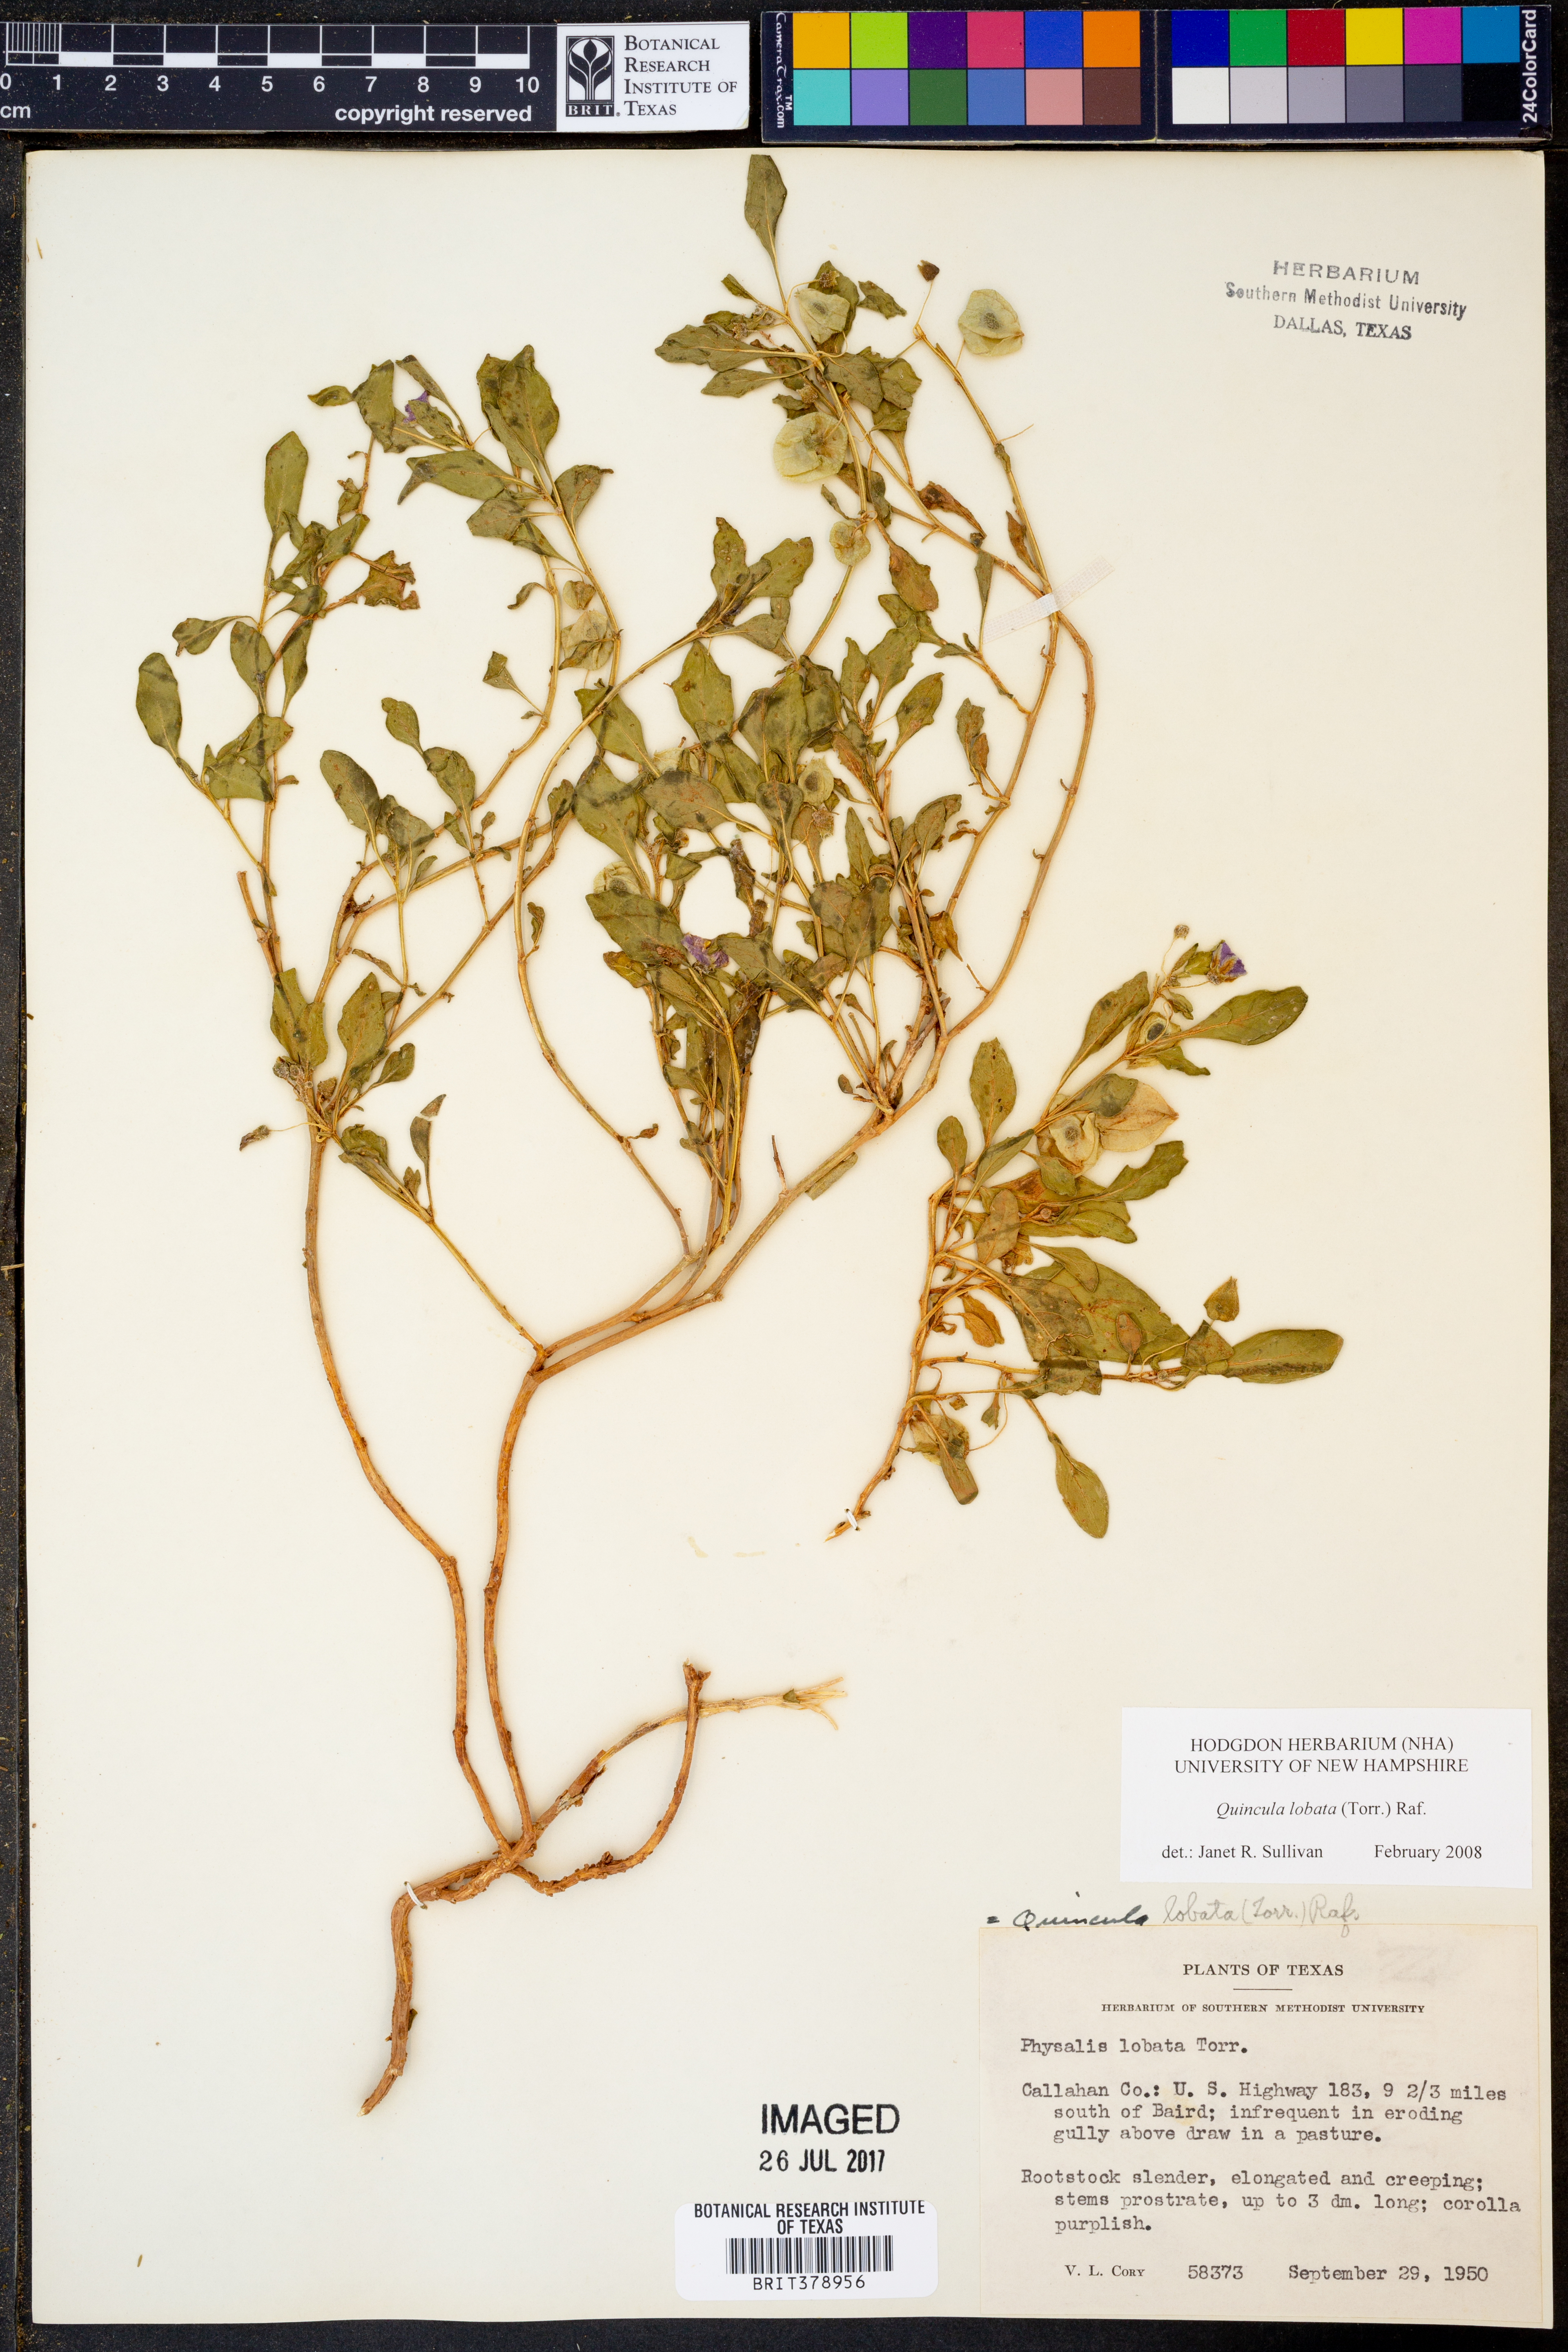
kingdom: Plantae
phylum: Tracheophyta
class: Magnoliopsida
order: Solanales
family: Solanaceae
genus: Quincula
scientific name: Quincula lobata
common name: Purple-ground-cherry
